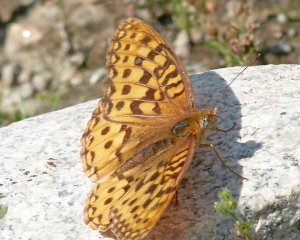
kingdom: Animalia
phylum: Arthropoda
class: Insecta
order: Lepidoptera
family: Nymphalidae
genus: Speyeria
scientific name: Speyeria zerene
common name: Zerene Fritillary
